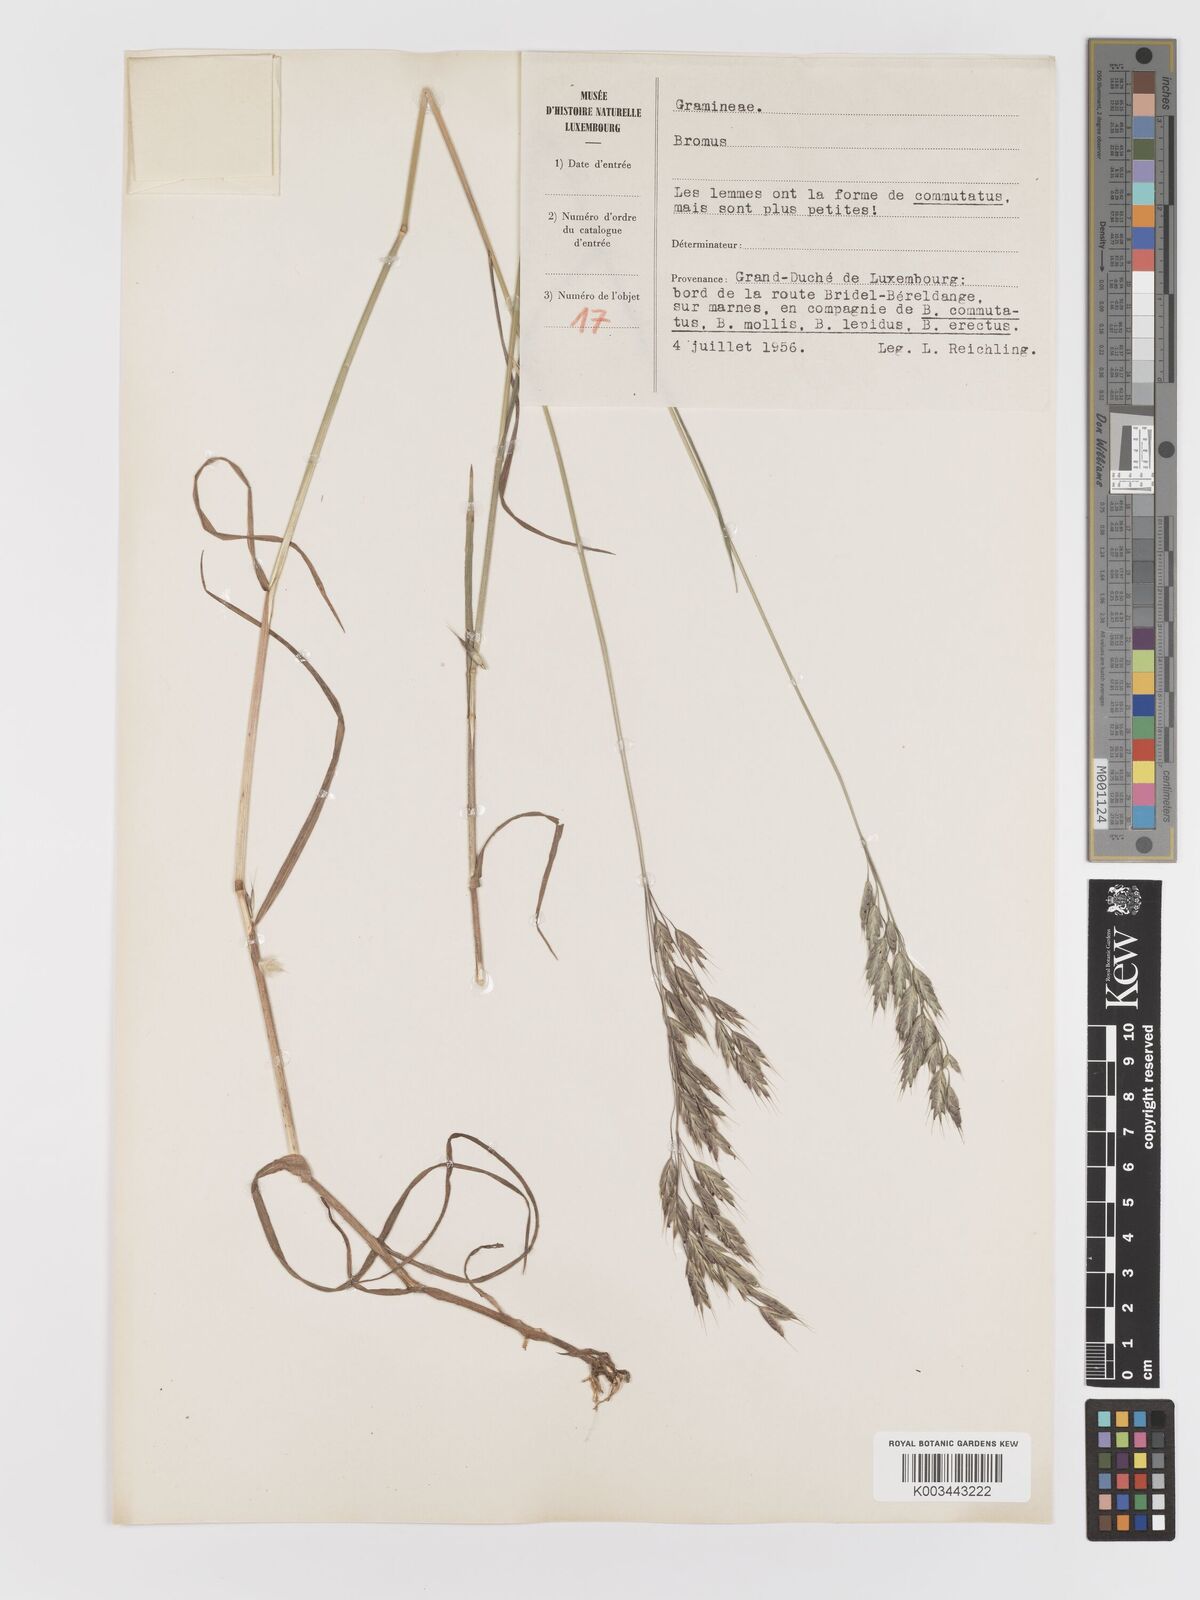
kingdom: Plantae
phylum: Tracheophyta
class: Liliopsida
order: Poales
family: Poaceae
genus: Bromus
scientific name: Bromus
